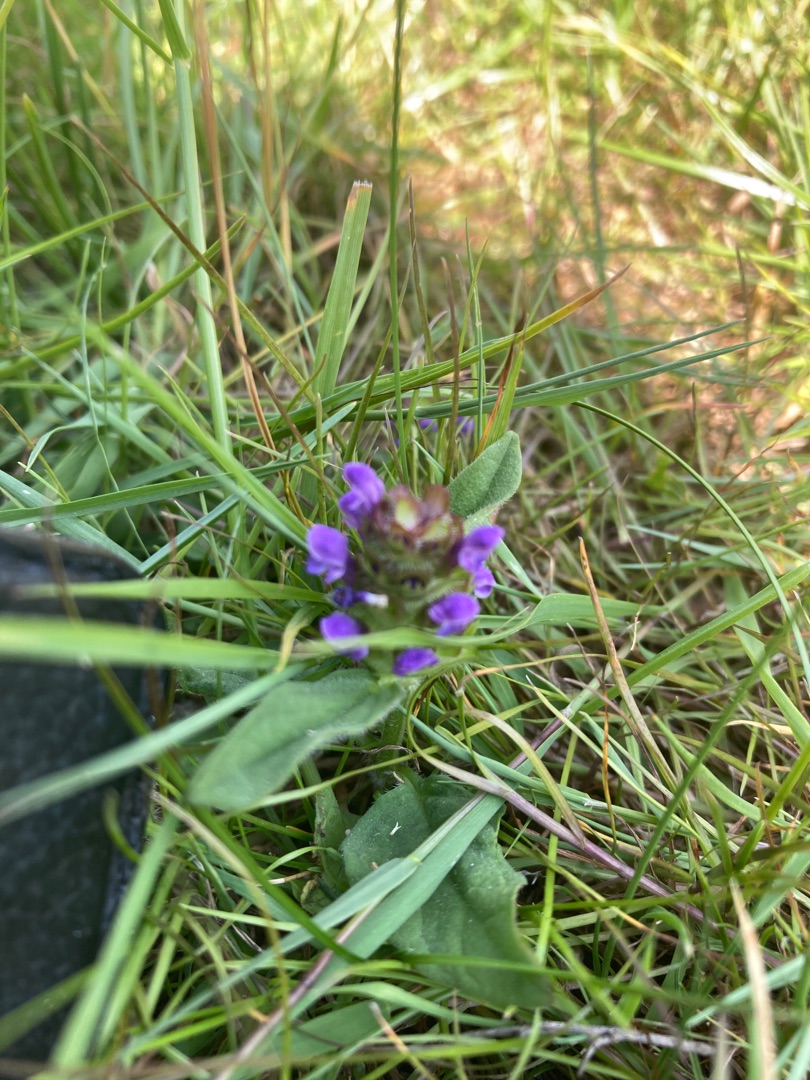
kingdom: Plantae
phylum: Tracheophyta
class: Magnoliopsida
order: Lamiales
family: Lamiaceae
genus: Prunella
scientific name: Prunella vulgaris
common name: Almindelig brunelle
